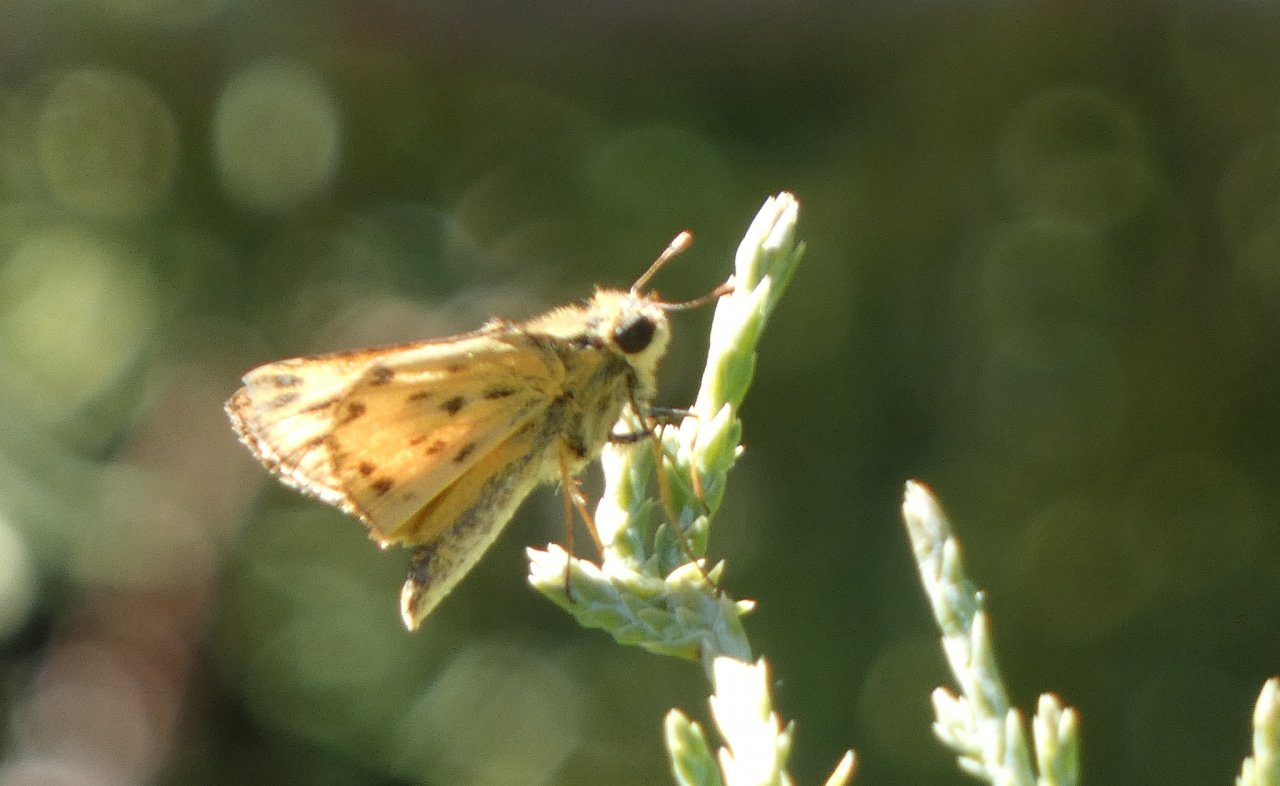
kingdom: Animalia
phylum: Arthropoda
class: Insecta
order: Lepidoptera
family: Hesperiidae
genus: Hylephila
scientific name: Hylephila phyleus
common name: Fiery Skipper
